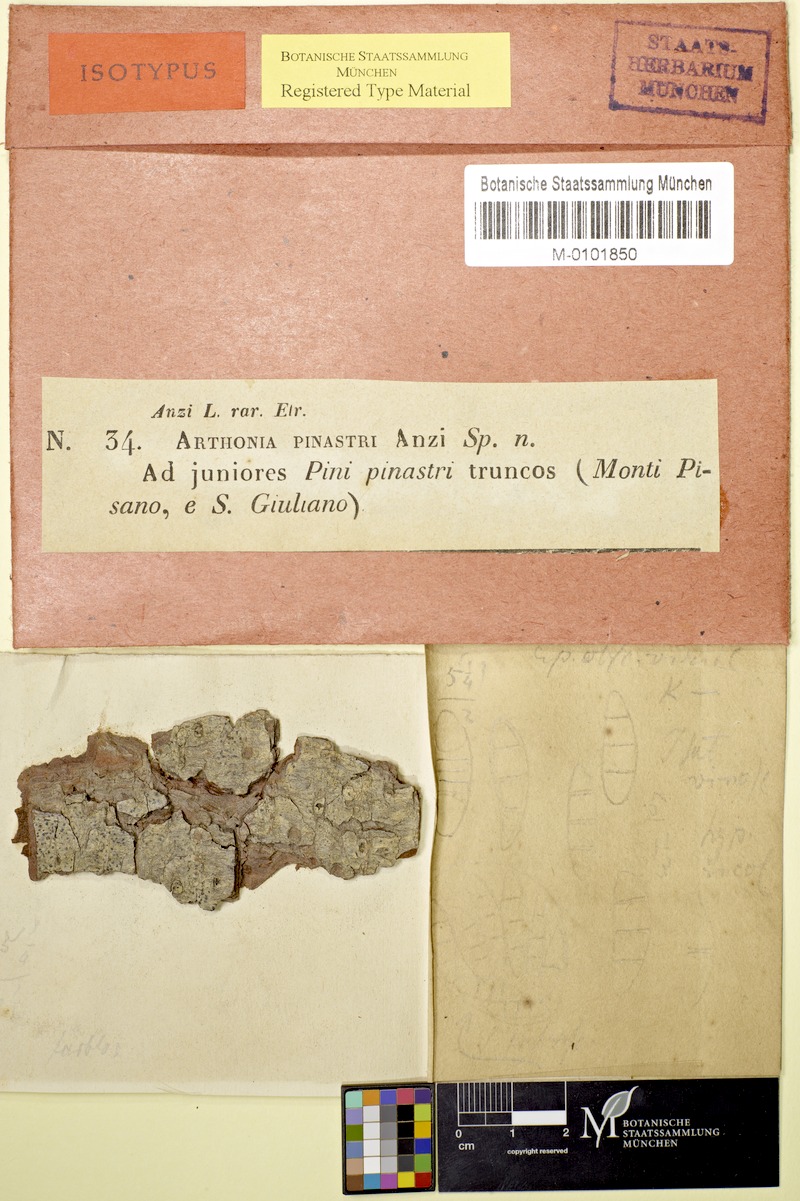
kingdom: Fungi
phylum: Ascomycota
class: Arthoniomycetes
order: Arthoniales
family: Arthoniaceae
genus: Naevia
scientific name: Naevia pinastri
